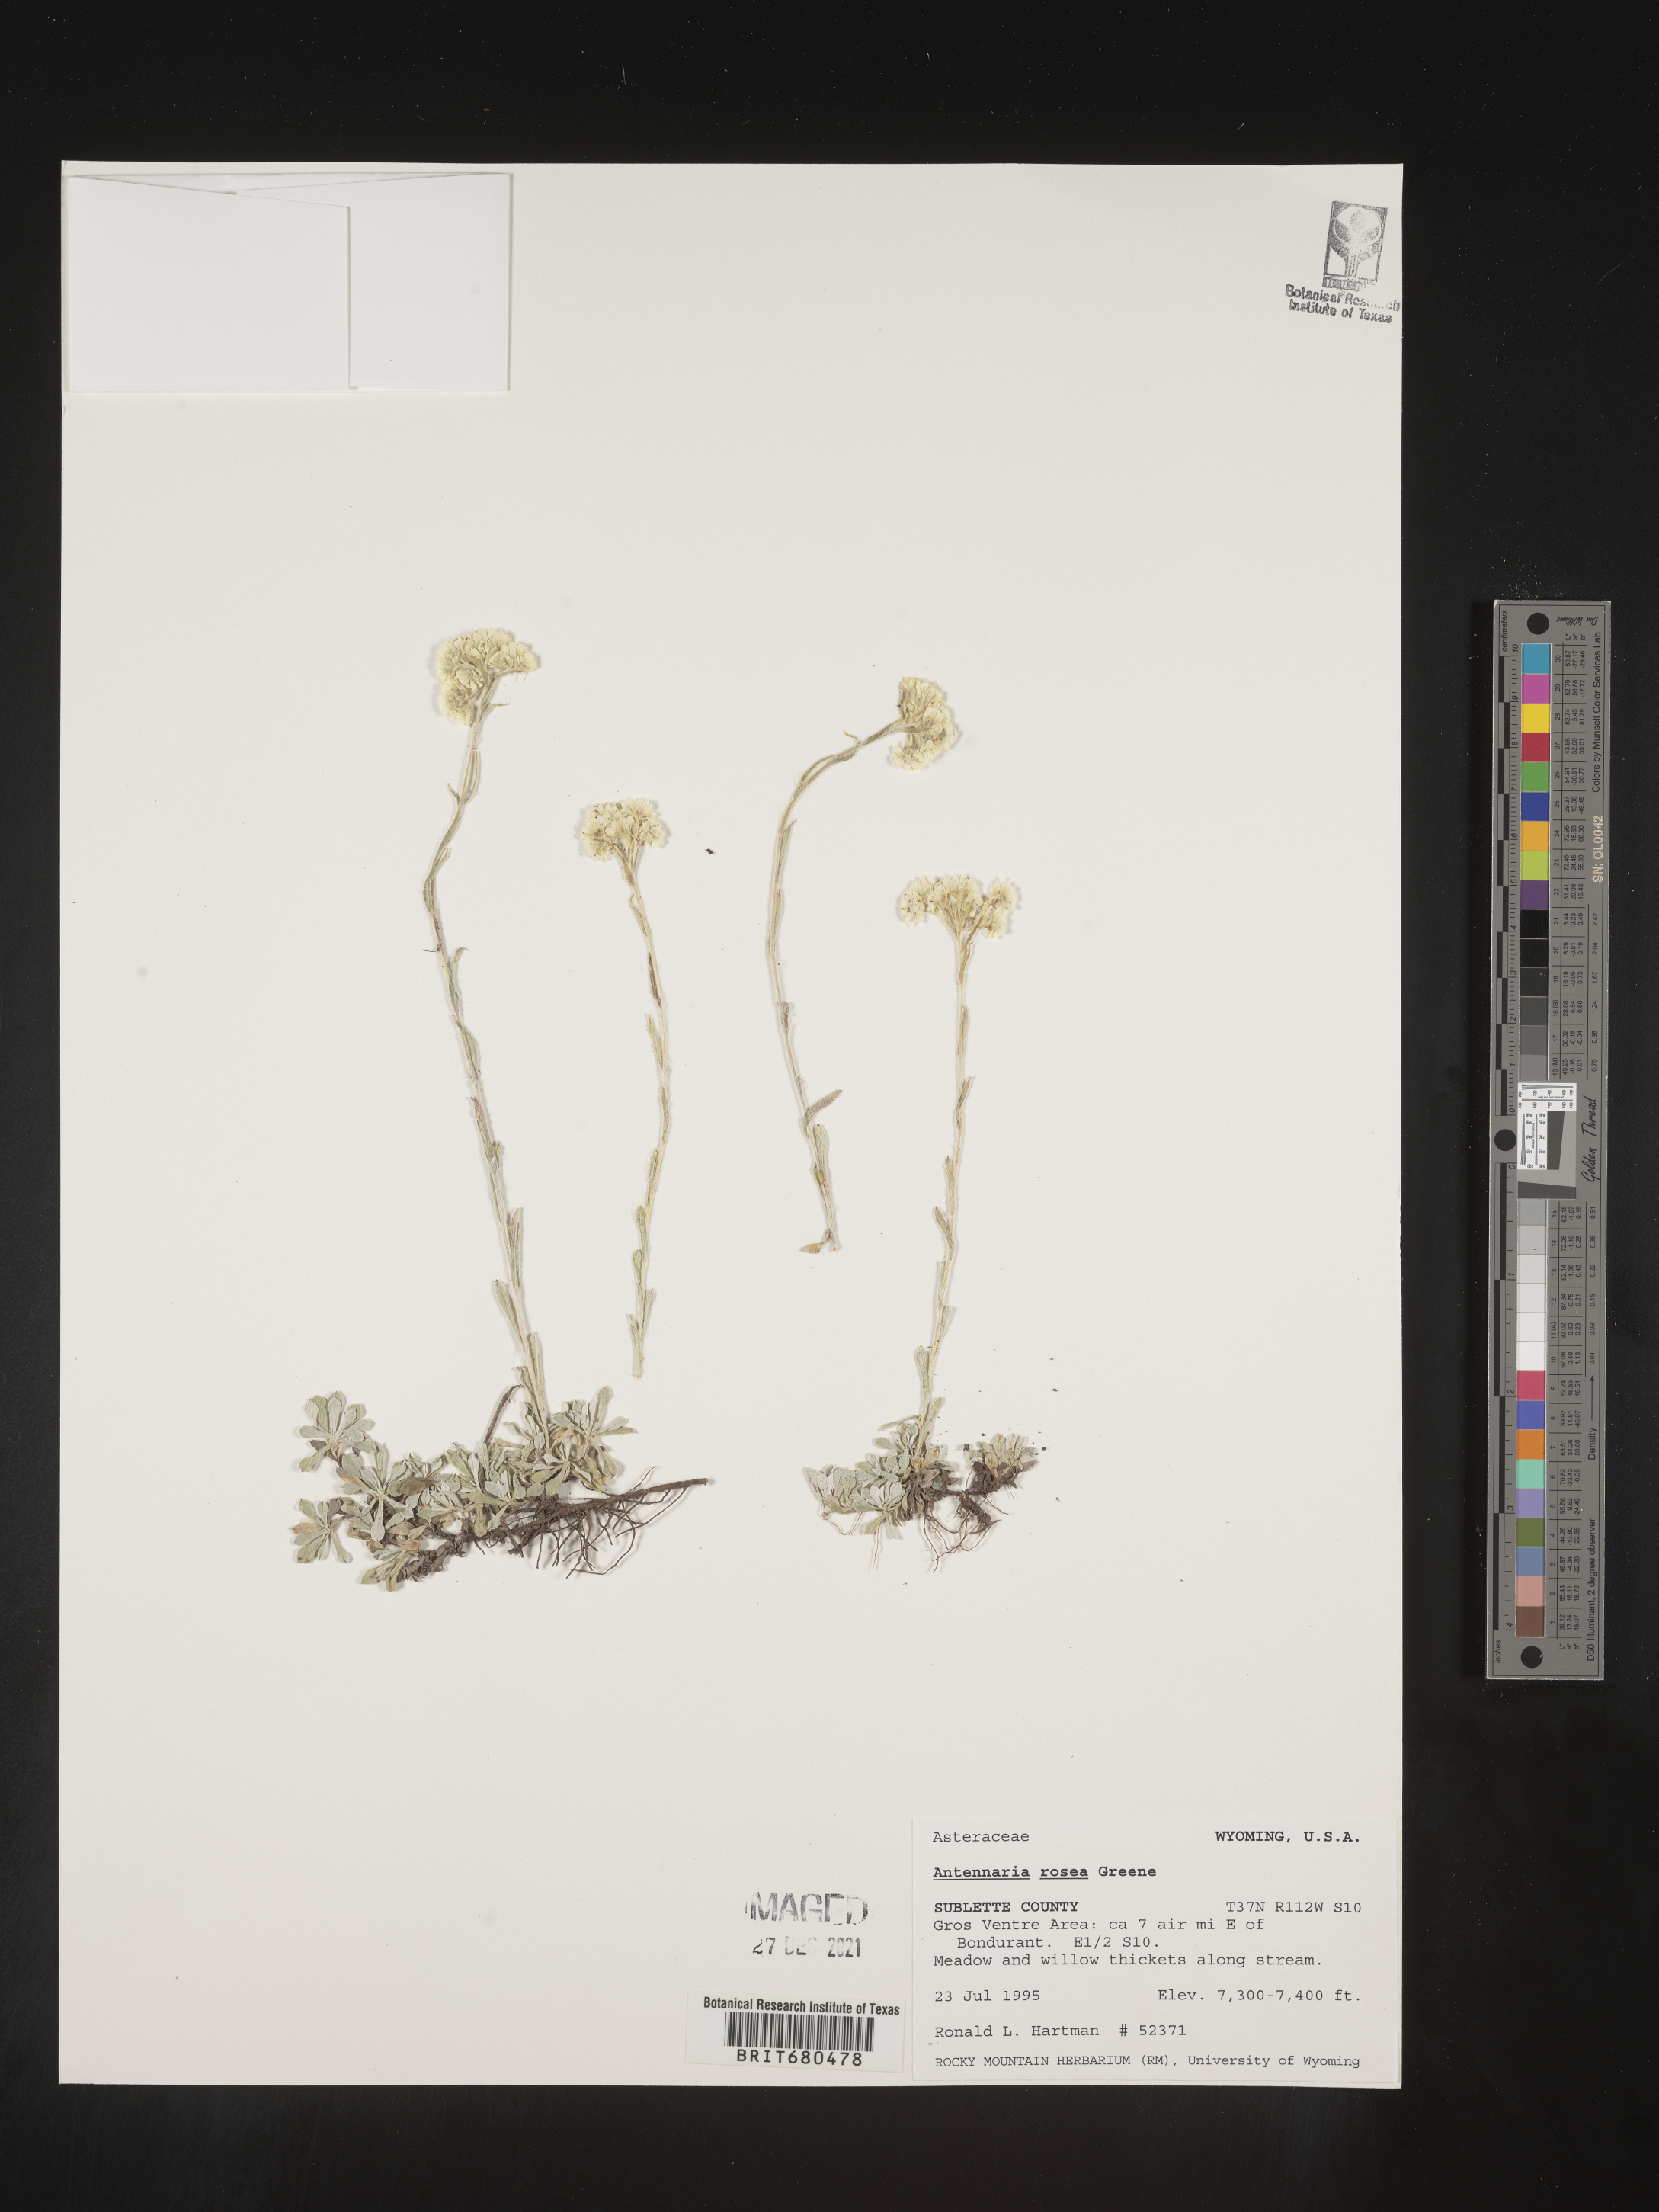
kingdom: Plantae
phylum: Tracheophyta
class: Magnoliopsida
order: Asterales
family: Asteraceae
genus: Antennaria
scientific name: Antennaria rosea
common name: Rosy pussytoes
